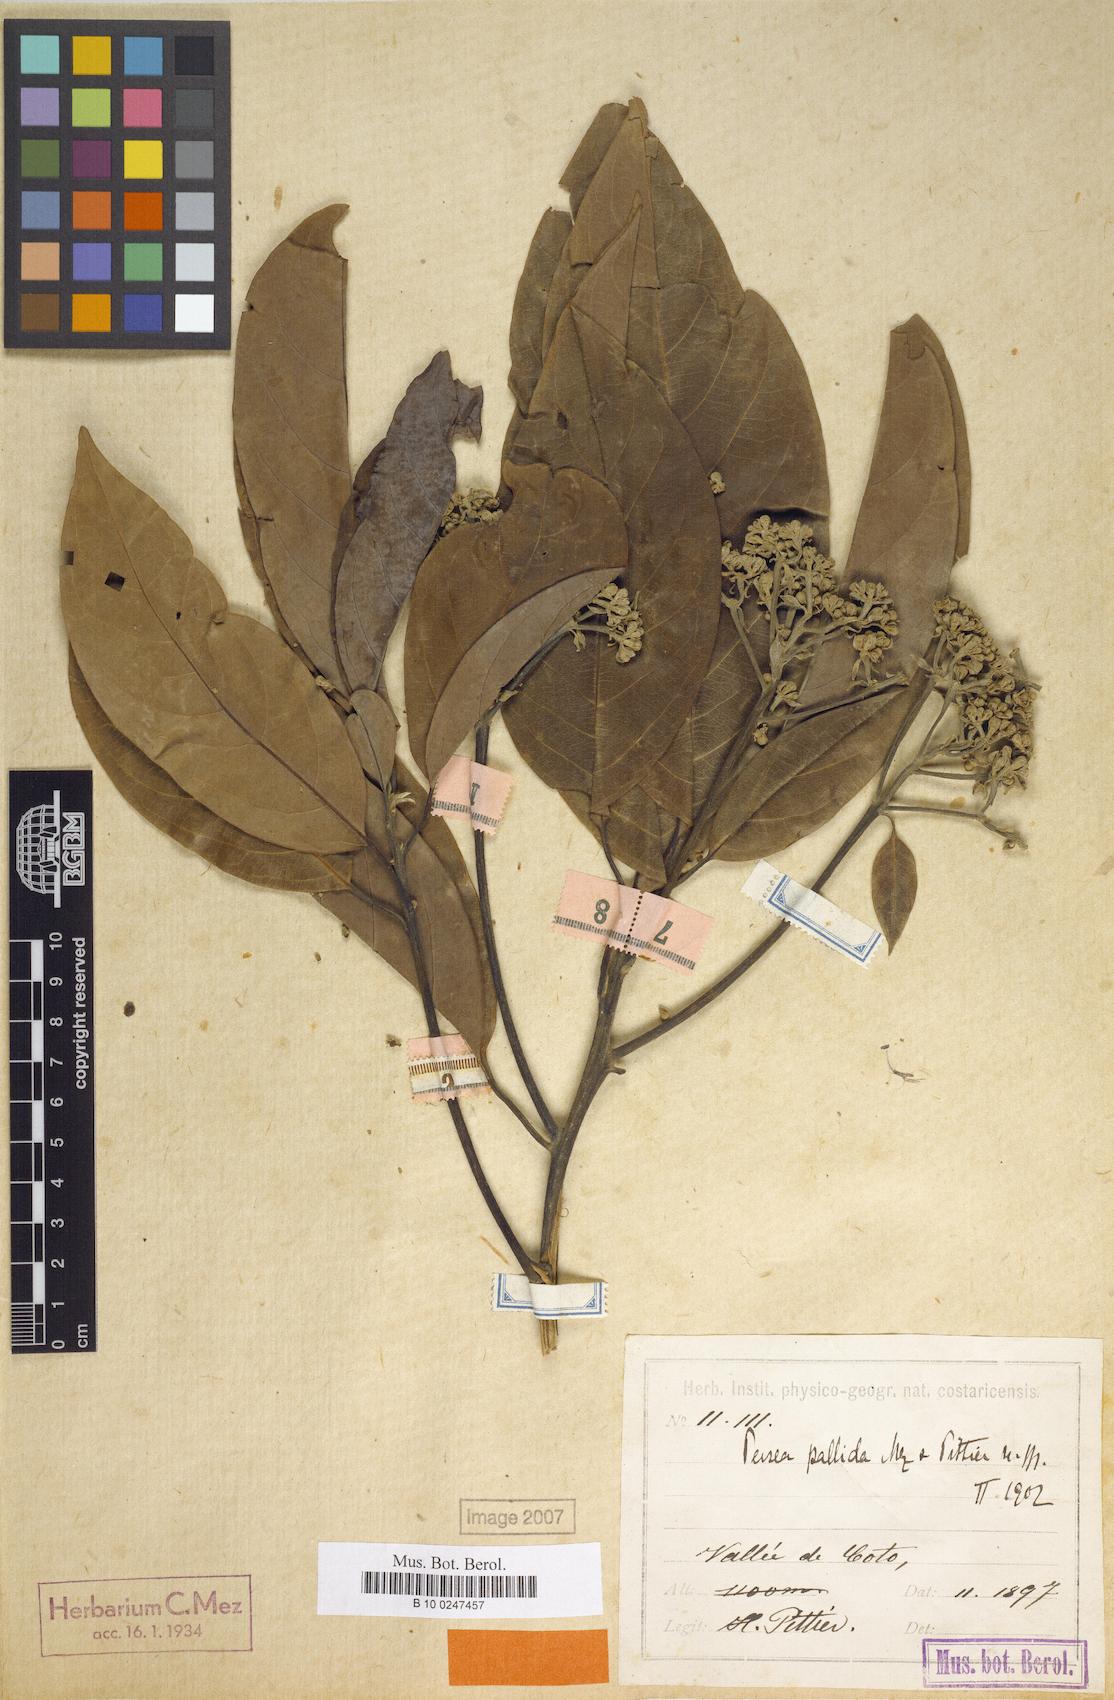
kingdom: Plantae
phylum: Tracheophyta
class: Magnoliopsida
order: Laurales
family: Lauraceae
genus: Persea
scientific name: Persea albida
